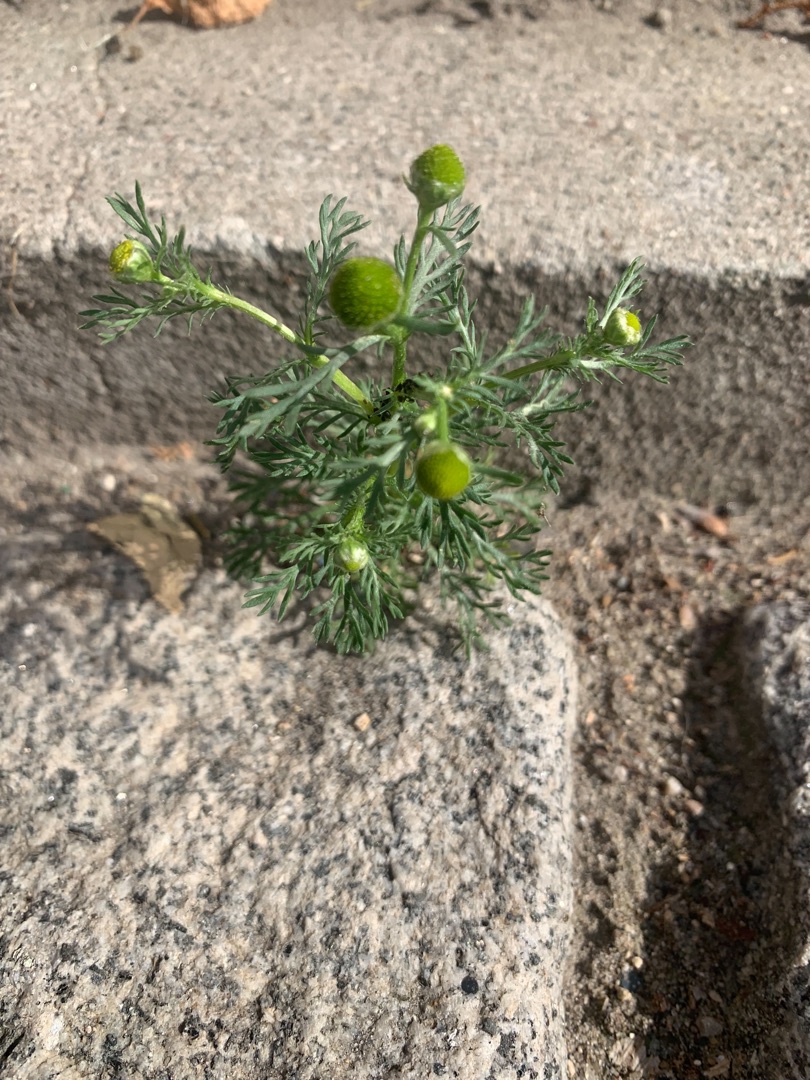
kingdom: Plantae
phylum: Tracheophyta
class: Magnoliopsida
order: Asterales
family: Asteraceae
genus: Matricaria
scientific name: Matricaria discoidea
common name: Skive-kamille
